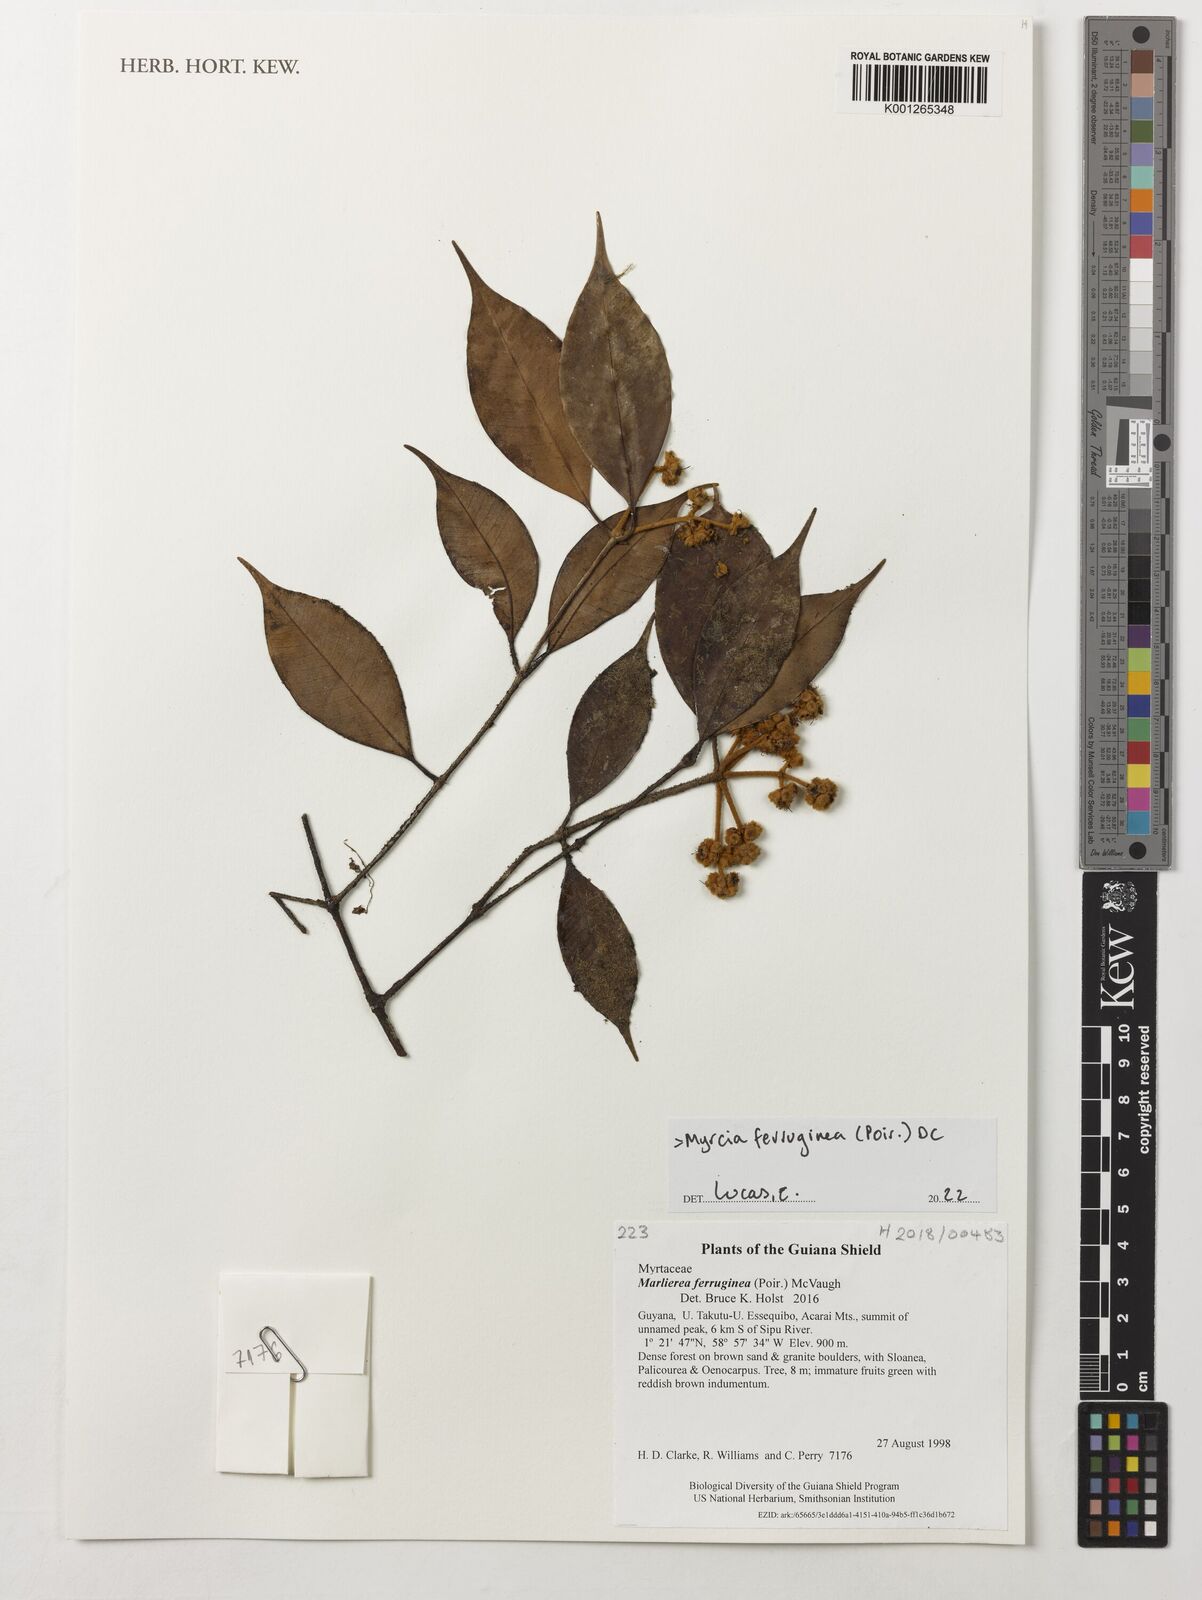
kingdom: Plantae
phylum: Tracheophyta
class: Magnoliopsida
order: Myrtales
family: Myrtaceae
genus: Myrcia
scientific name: Myrcia ferruginea
